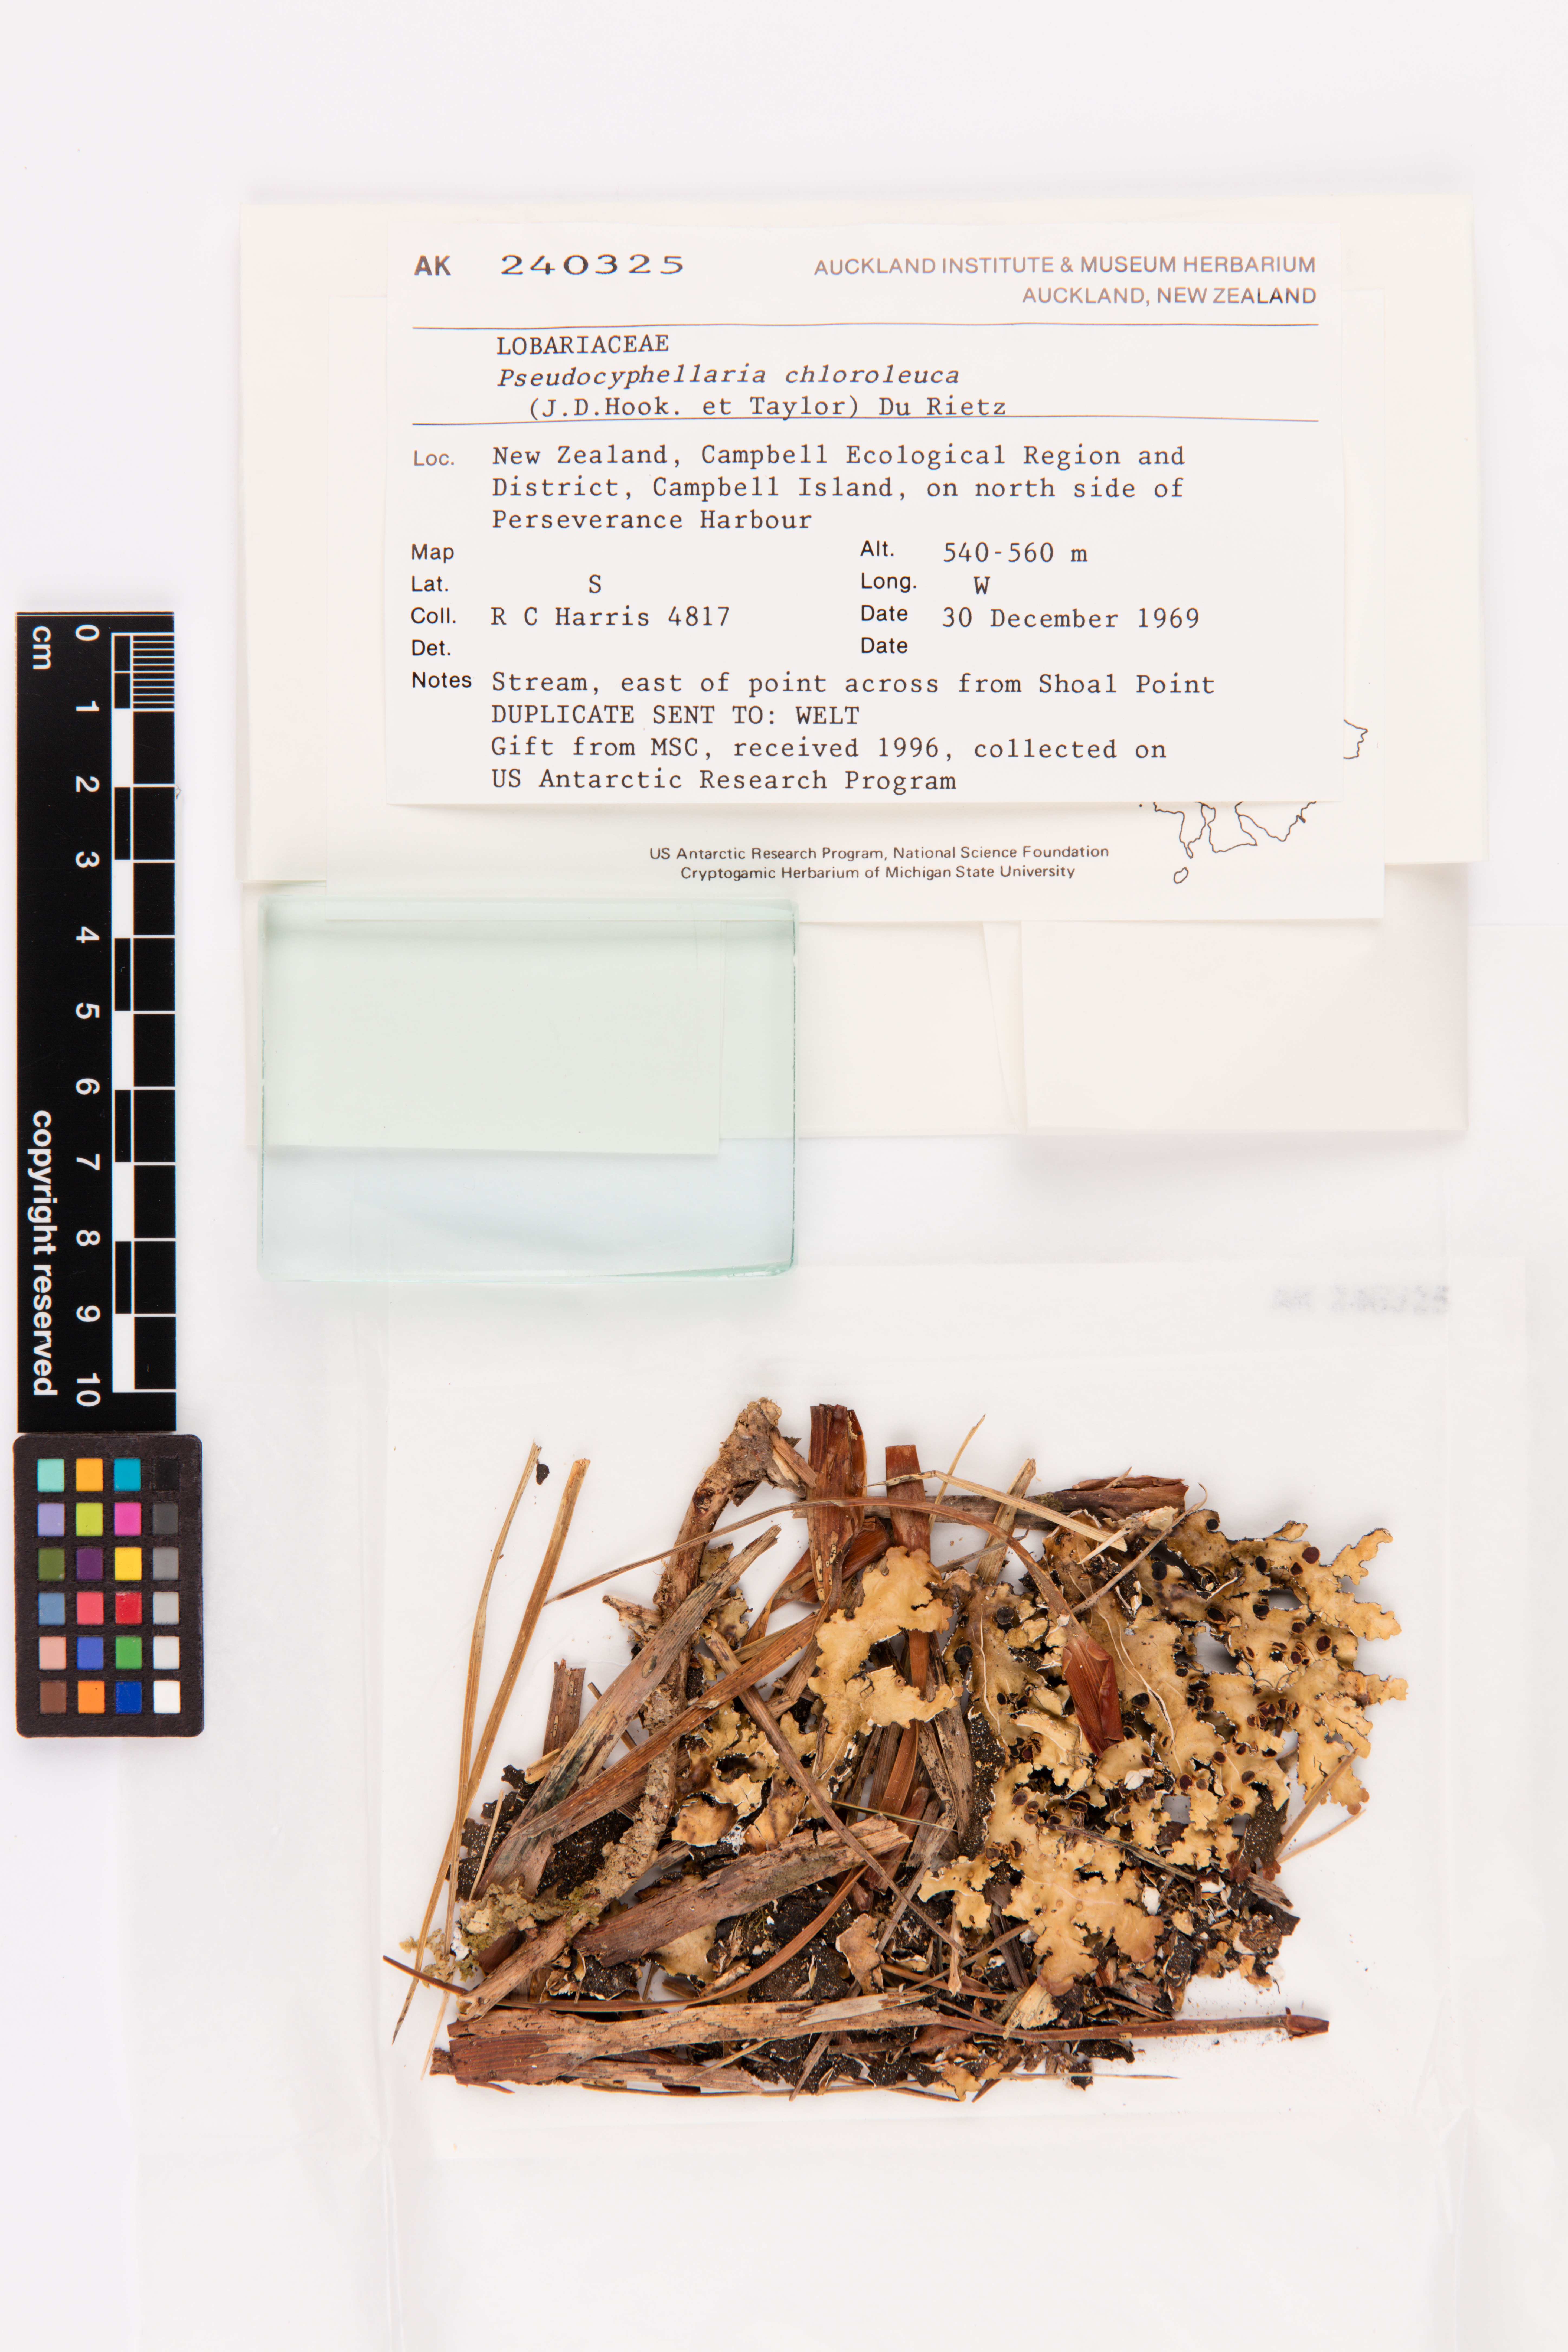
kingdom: Fungi
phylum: Ascomycota
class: Lecanoromycetes
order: Peltigerales
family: Lobariaceae
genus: Pseudocyphellaria
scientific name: Pseudocyphellaria chloroleuca
